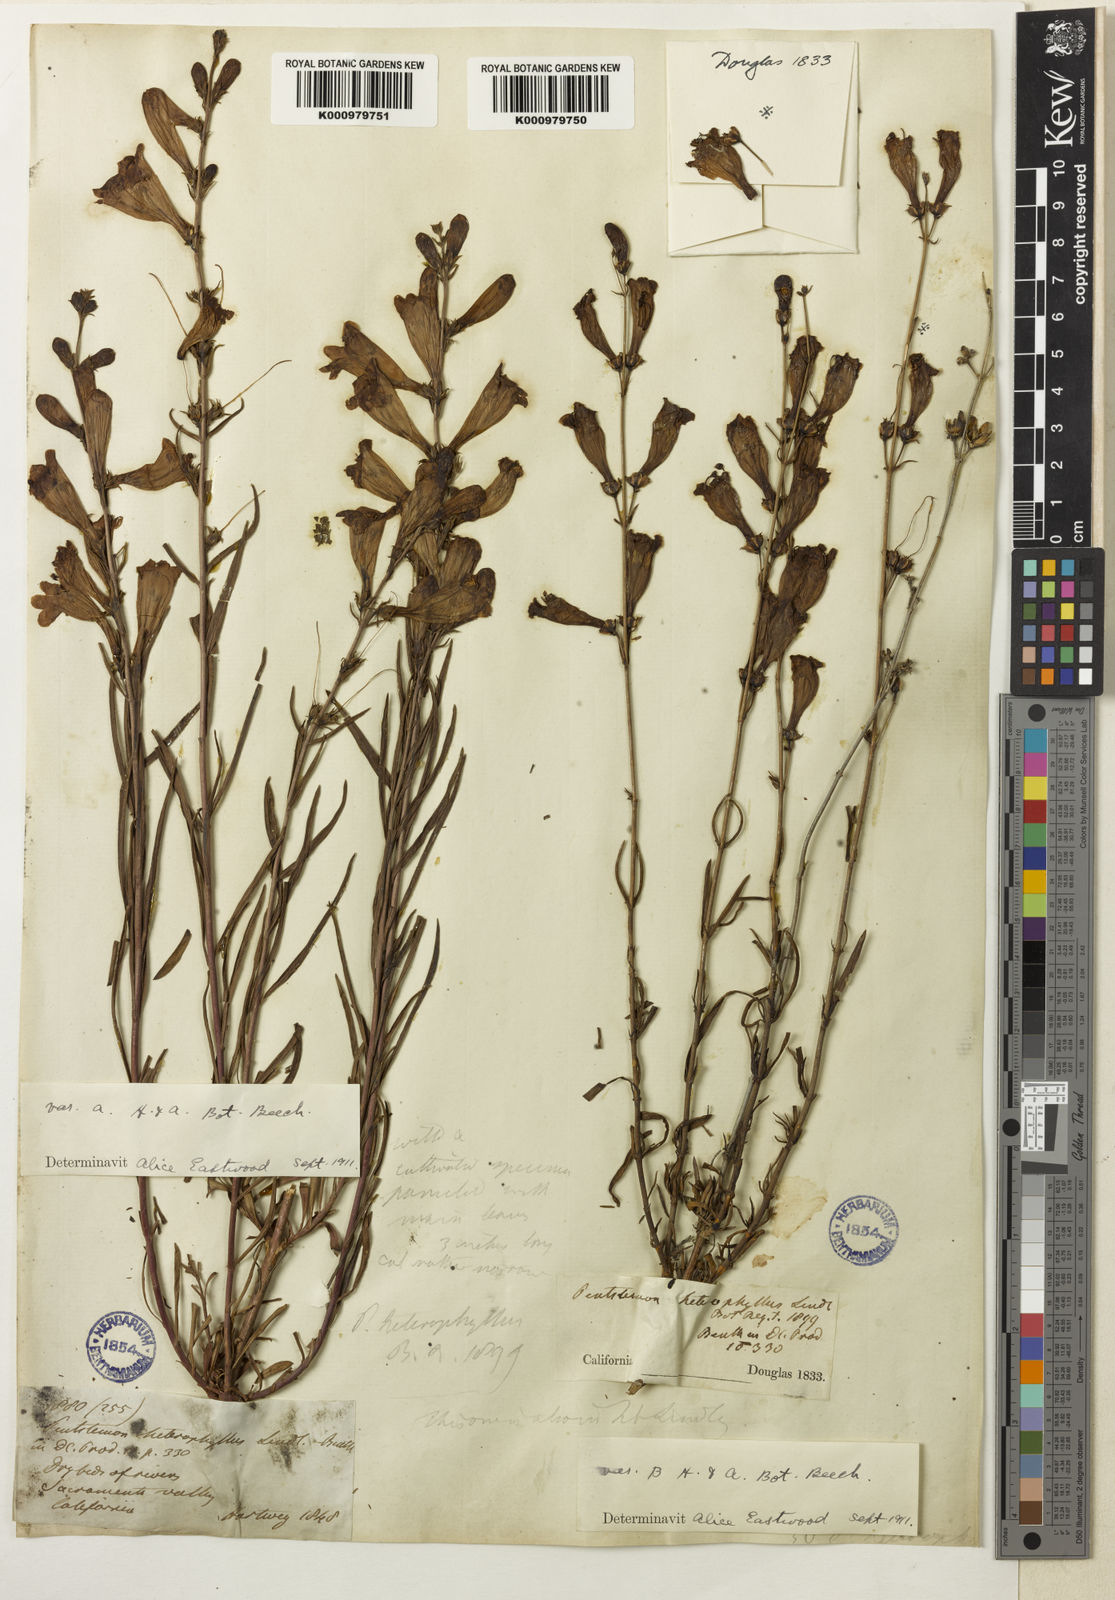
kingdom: Plantae
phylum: Tracheophyta
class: Magnoliopsida
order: Lamiales
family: Plantaginaceae
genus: Penstemon
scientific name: Penstemon heterophyllus
